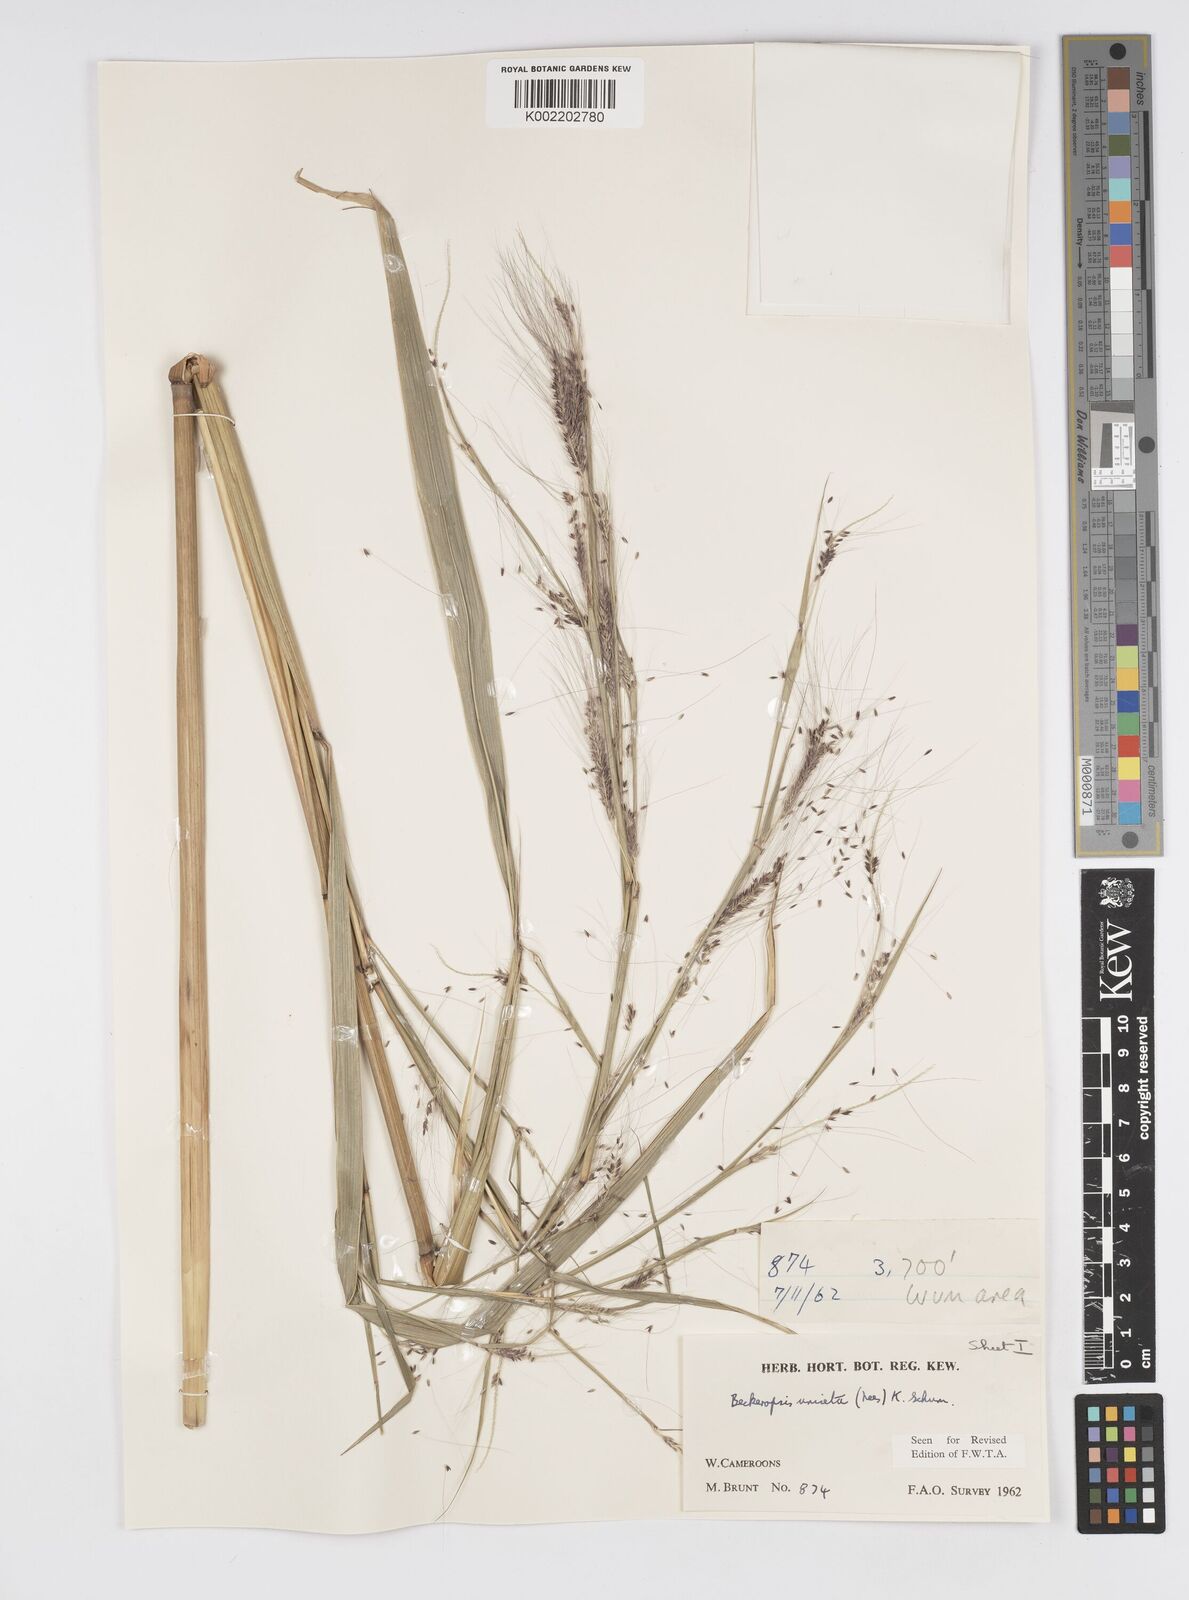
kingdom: Plantae
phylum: Tracheophyta
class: Liliopsida
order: Poales
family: Poaceae
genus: Cenchrus
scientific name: Cenchrus unisetus
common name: Natal grass
